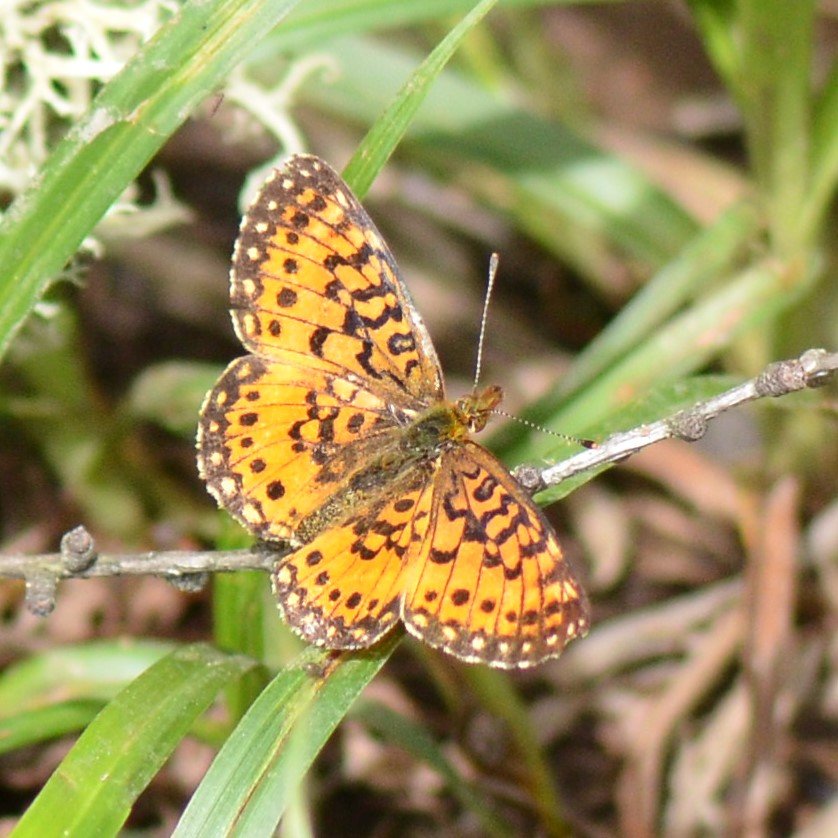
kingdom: Animalia
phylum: Arthropoda
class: Insecta
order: Lepidoptera
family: Nymphalidae
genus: Boloria
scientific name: Boloria selene
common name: Silver-bordered Fritillary
